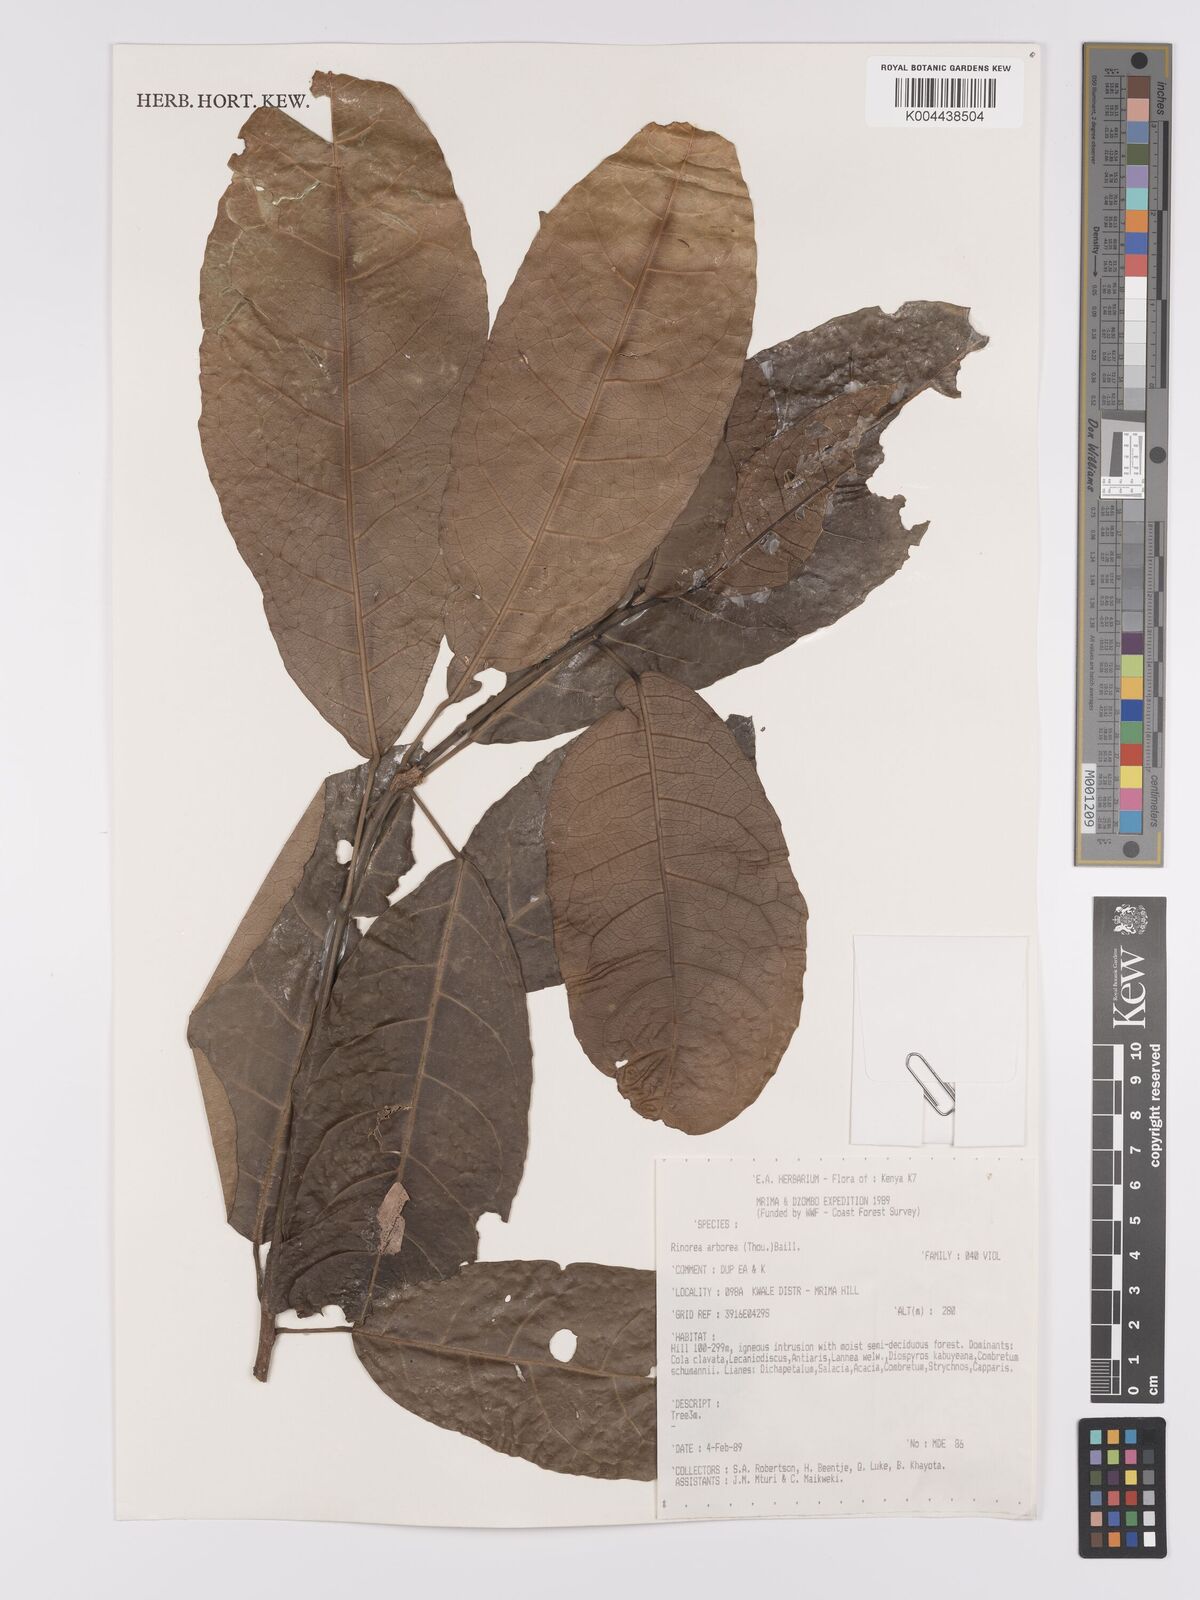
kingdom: Plantae
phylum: Tracheophyta
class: Magnoliopsida
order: Malpighiales
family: Violaceae
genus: Rinorea
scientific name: Rinorea arborea
